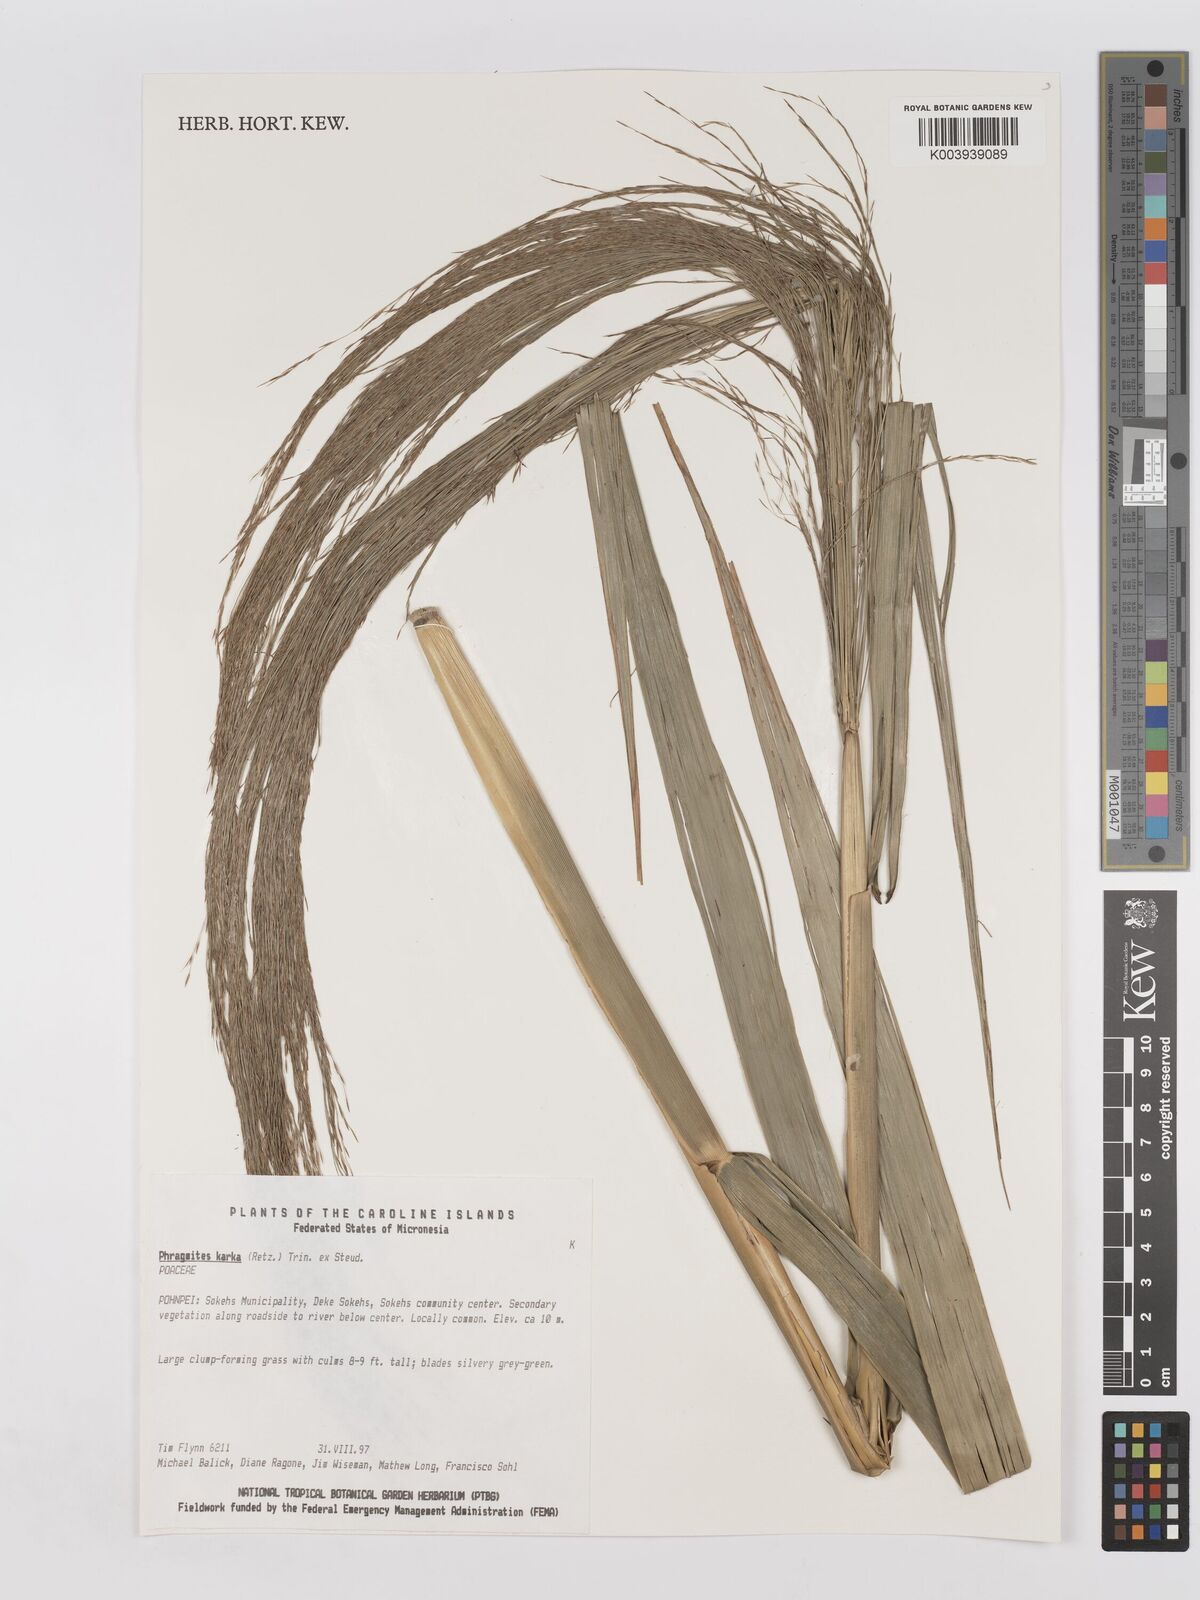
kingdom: Plantae
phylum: Tracheophyta
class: Liliopsida
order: Poales
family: Poaceae
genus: Phragmites
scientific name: Phragmites karka
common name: Tropical reed
